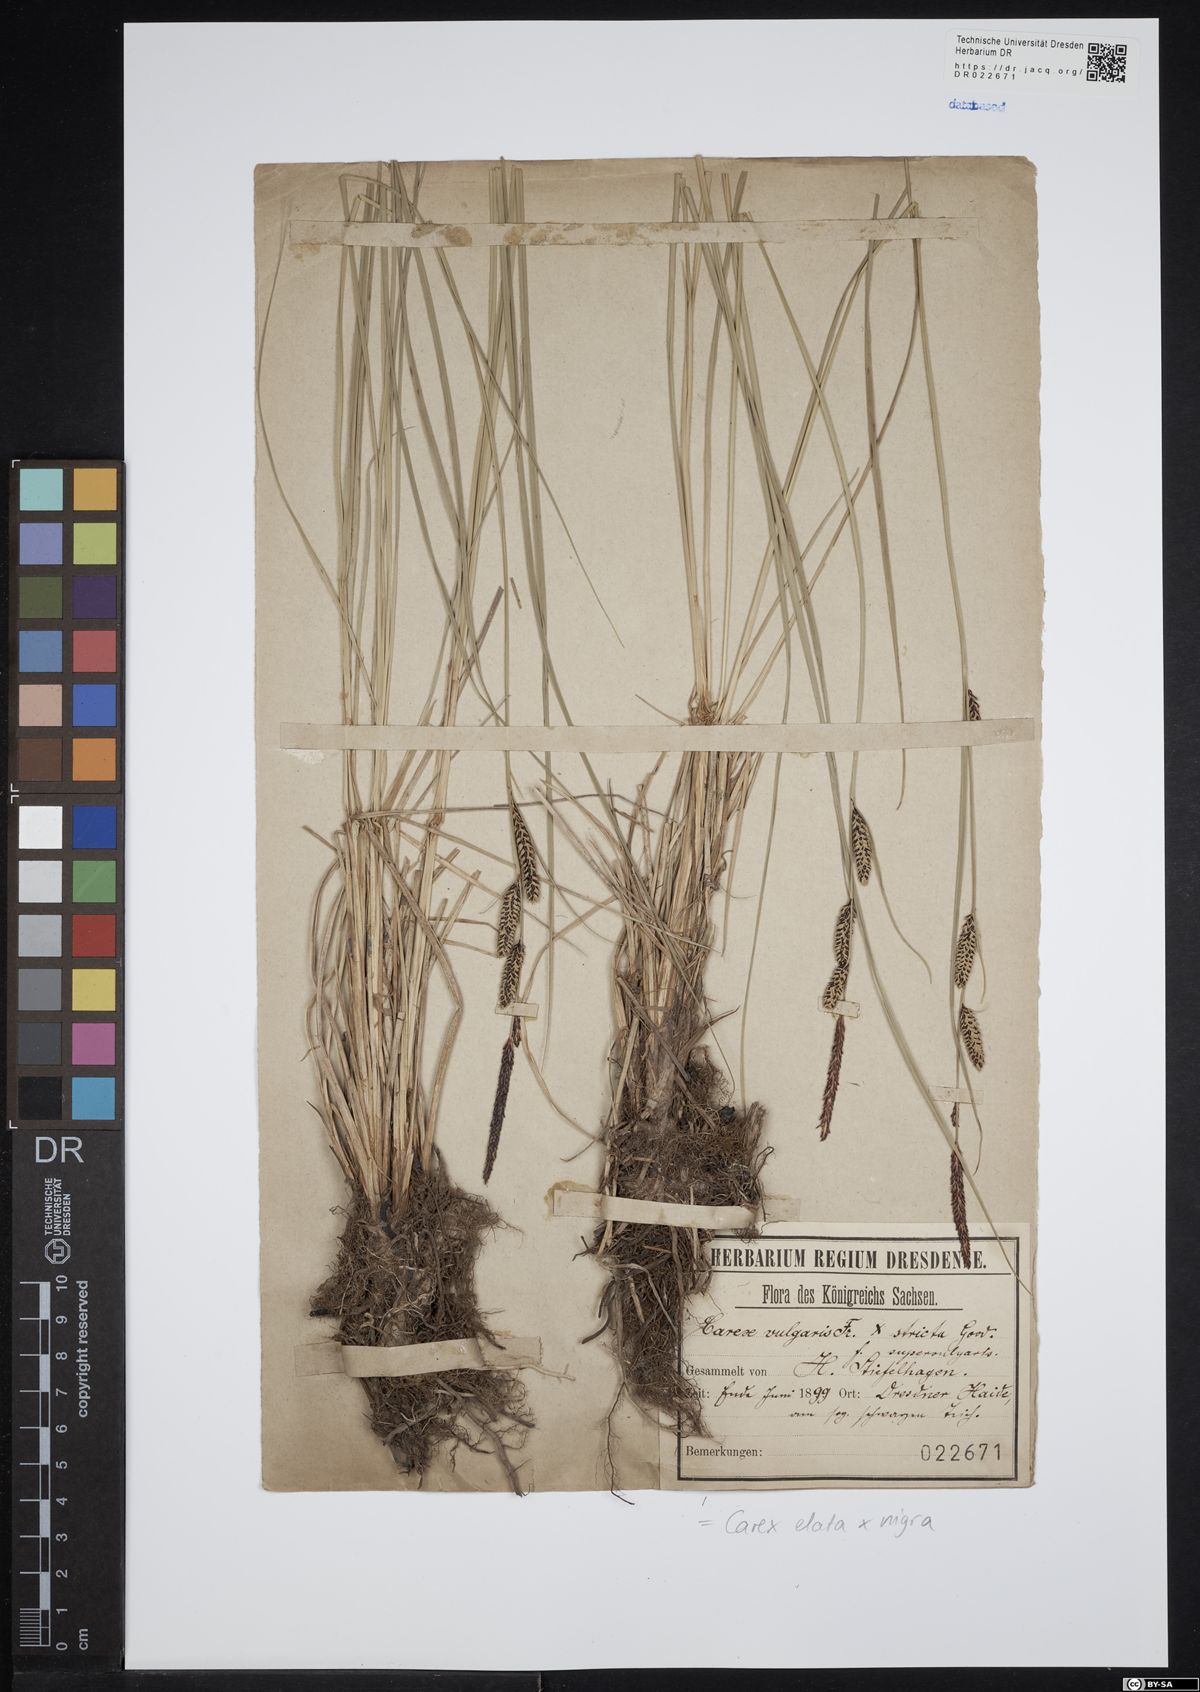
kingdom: Plantae
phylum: Tracheophyta
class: Liliopsida
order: Poales
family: Cyperaceae
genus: Carex
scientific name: Carex turfosa
